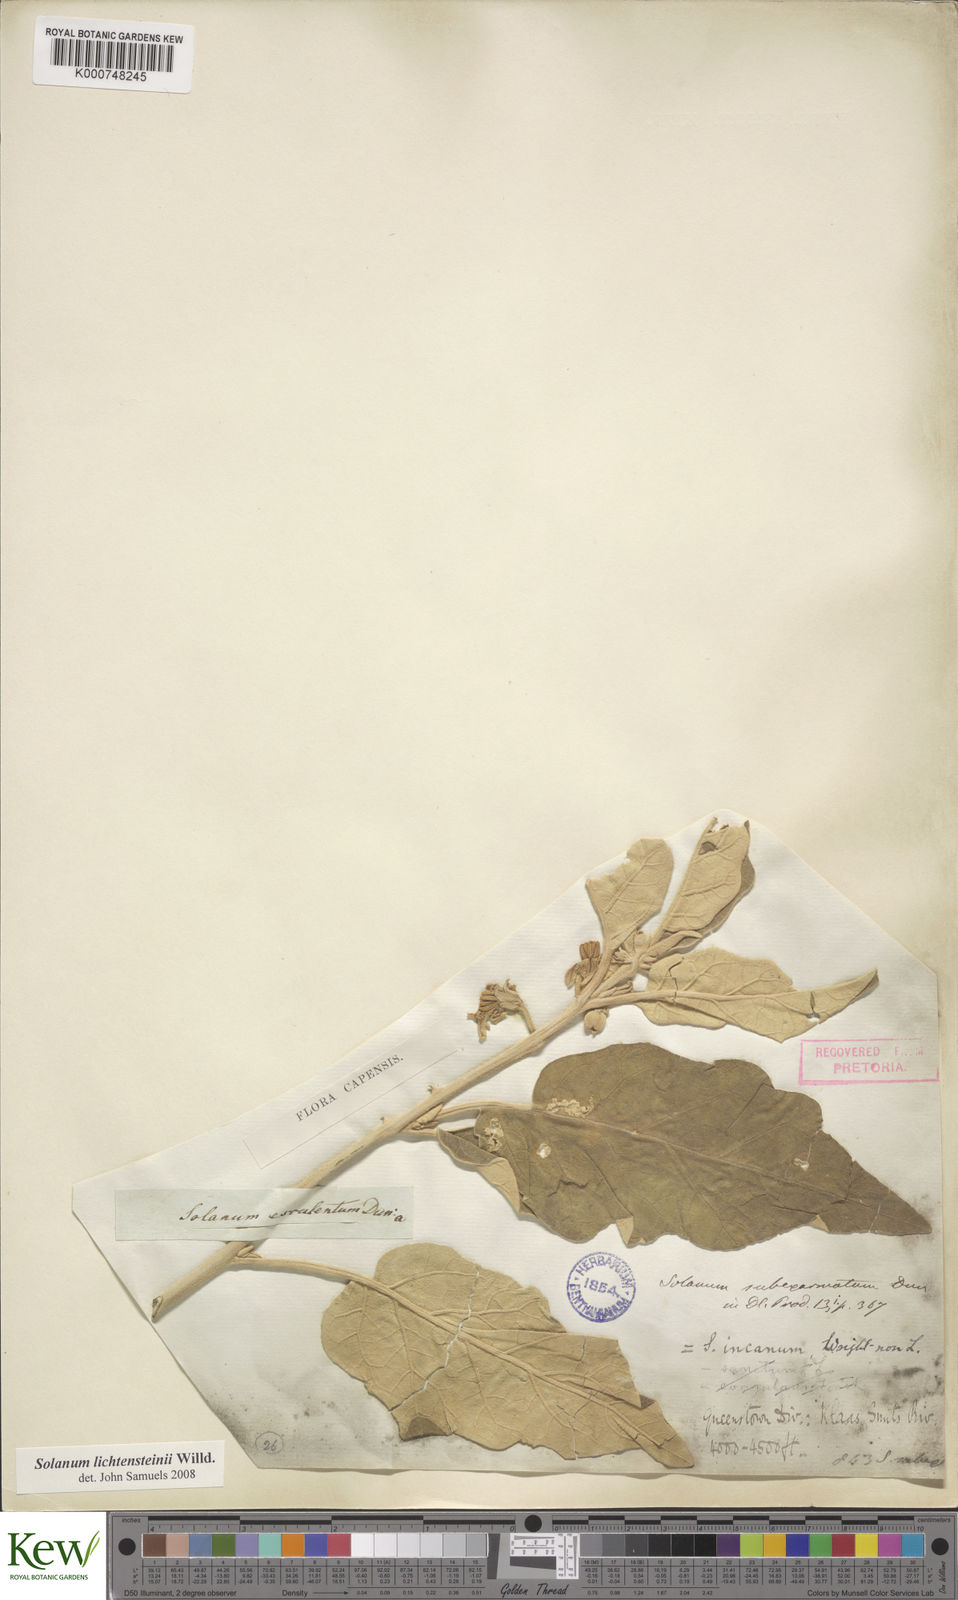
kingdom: Plantae
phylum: Tracheophyta
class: Magnoliopsida
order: Solanales
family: Solanaceae
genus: Solanum
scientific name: Solanum lichtensteinii
